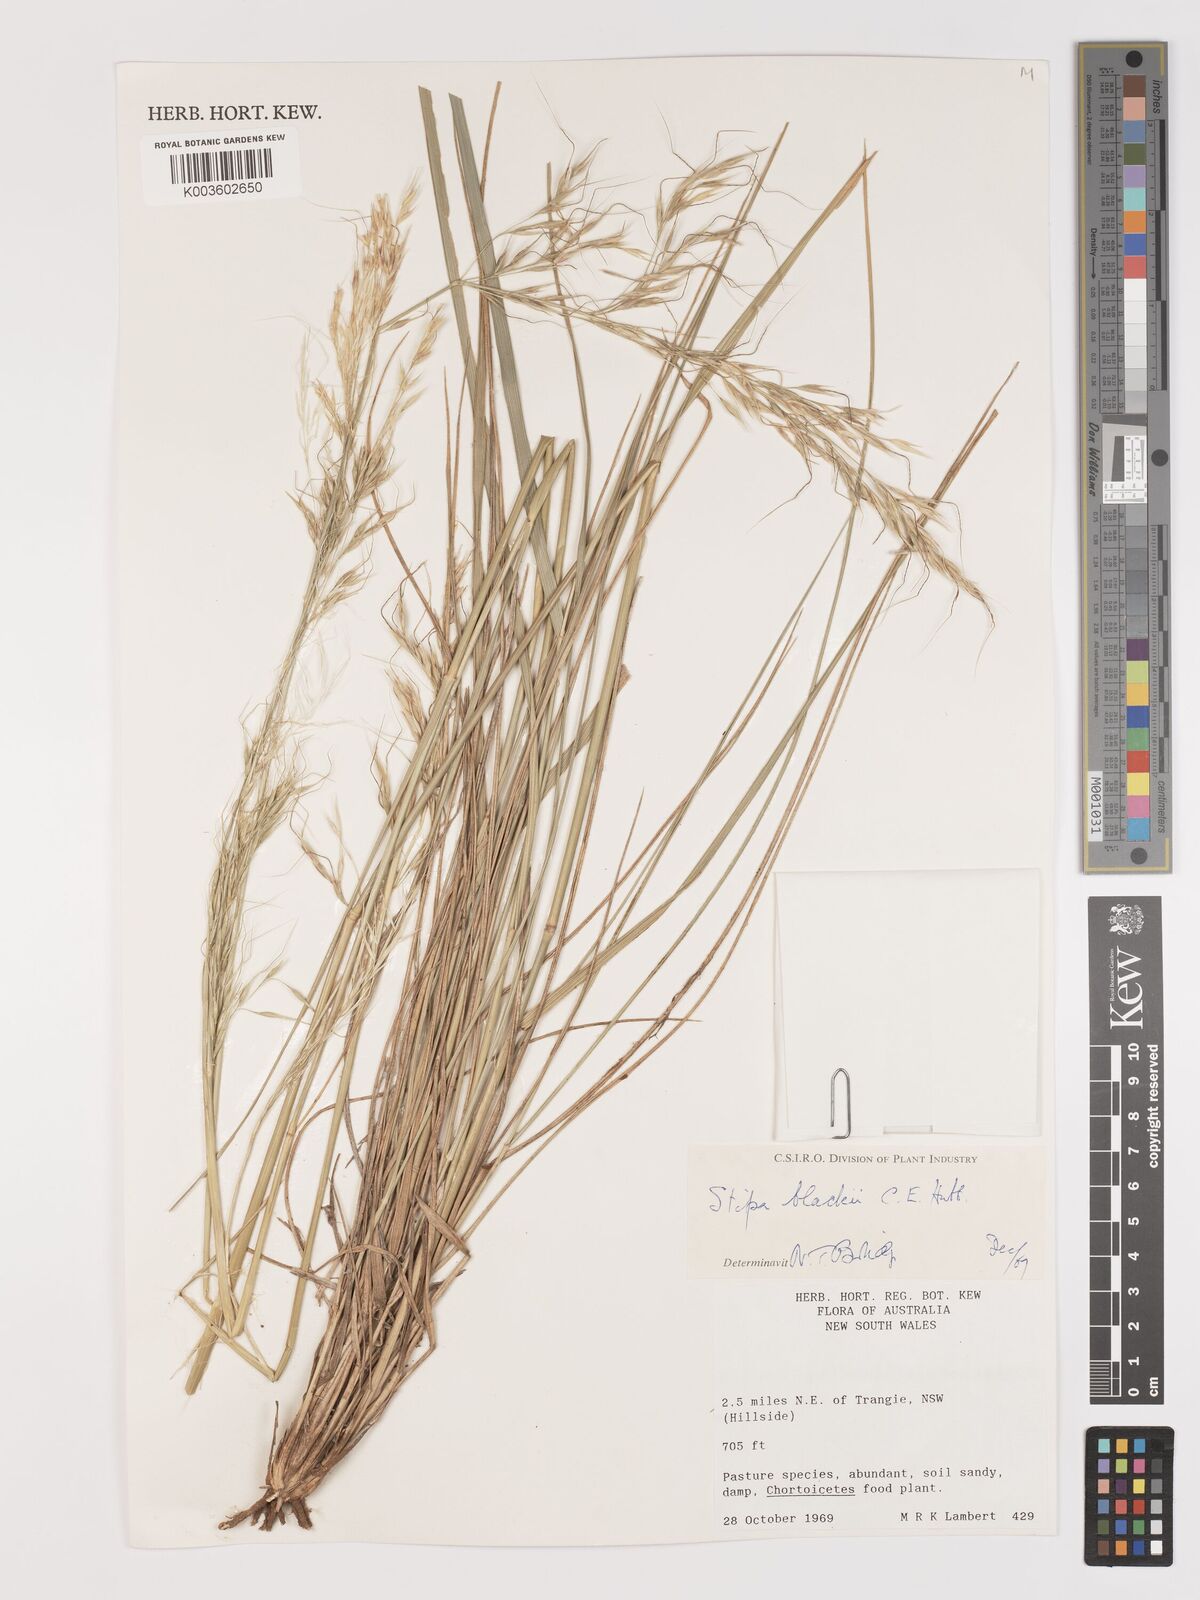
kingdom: Plantae
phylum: Tracheophyta
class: Liliopsida
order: Poales
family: Poaceae
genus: Austrostipa
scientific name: Austrostipa blackii
